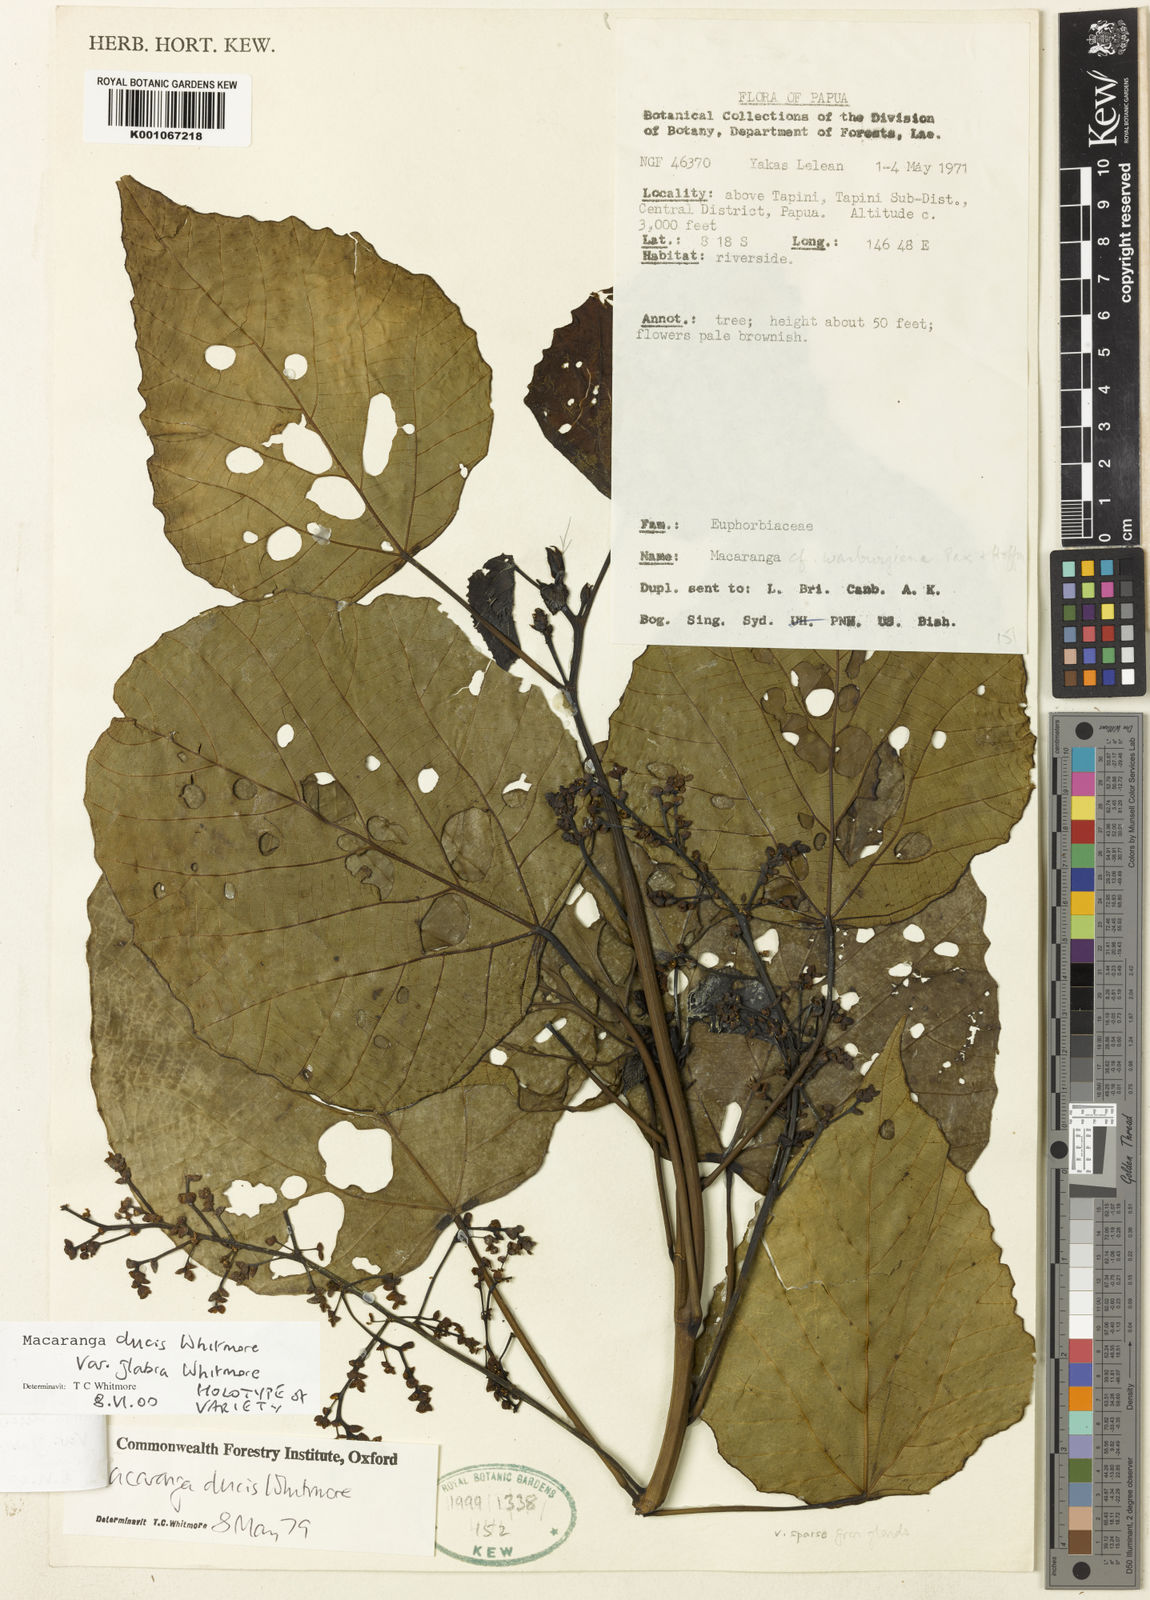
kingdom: Plantae
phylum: Tracheophyta
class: Magnoliopsida
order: Malpighiales
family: Euphorbiaceae
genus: Macaranga
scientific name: Macaranga ducis
